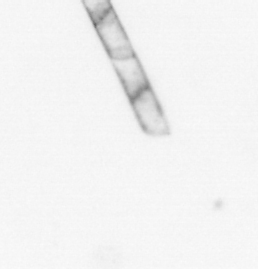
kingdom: Chromista
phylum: Ochrophyta
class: Bacillariophyceae
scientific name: Bacillariophyceae
